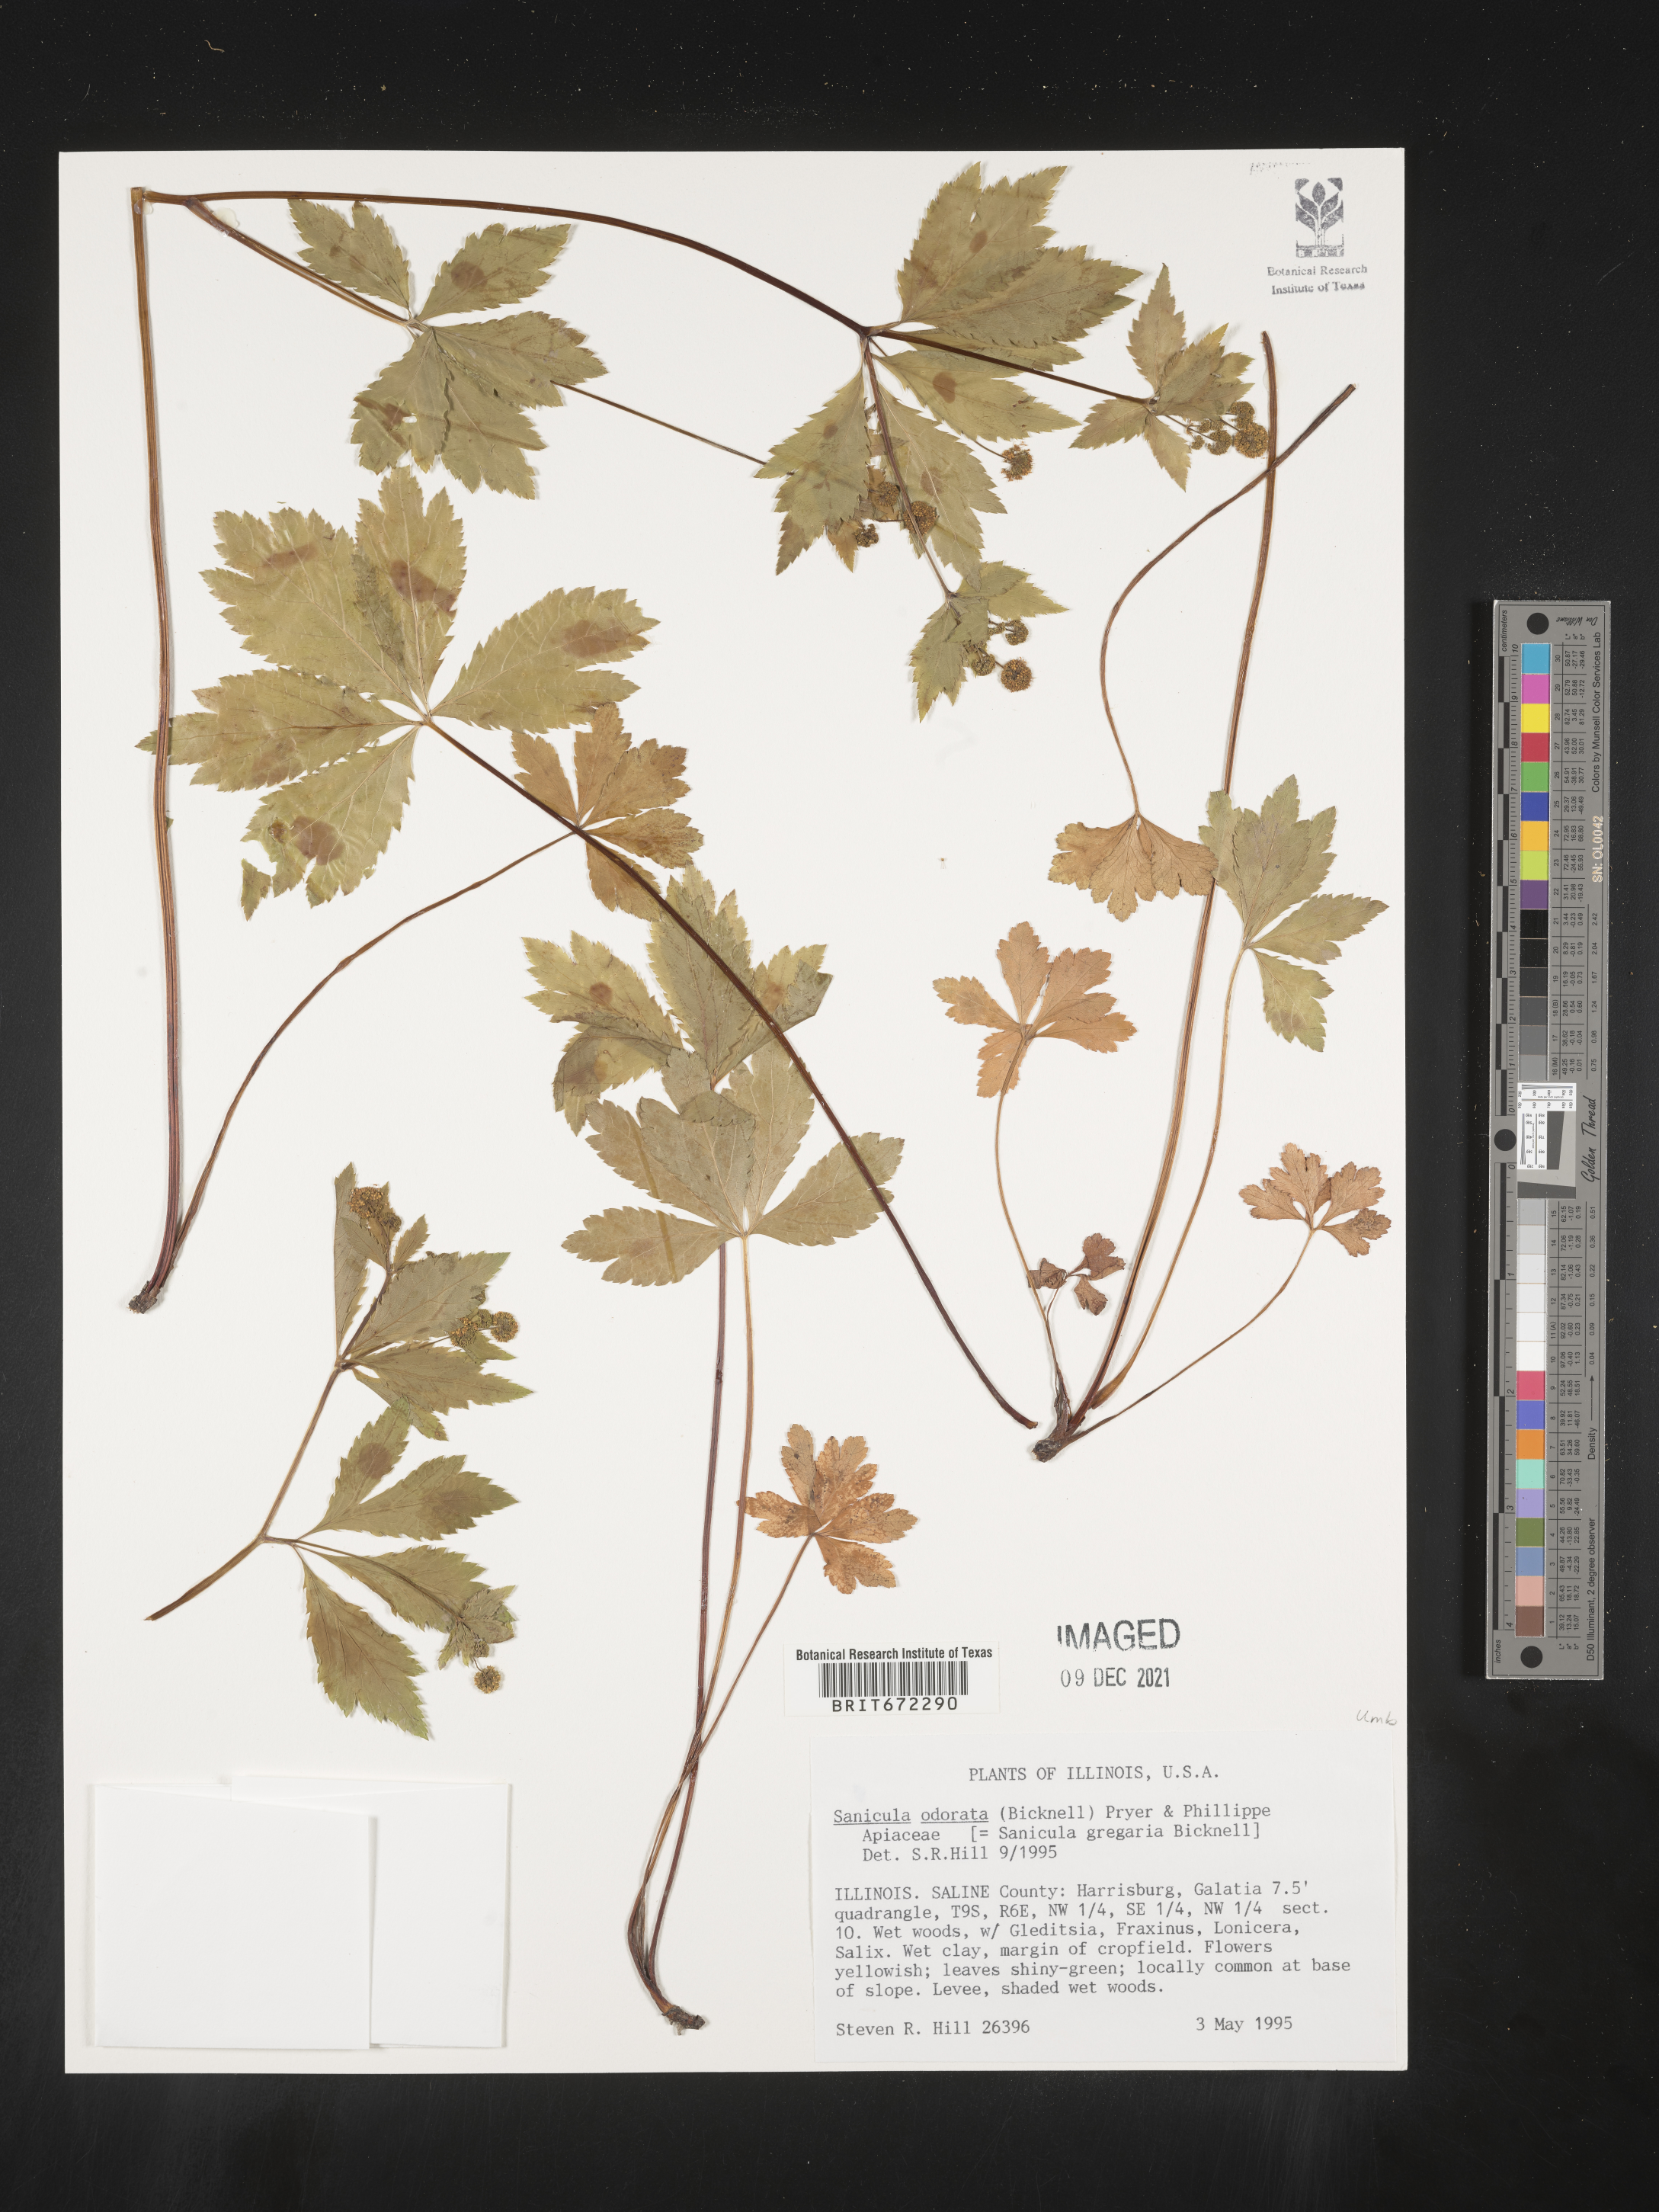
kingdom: Plantae
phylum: Tracheophyta
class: Magnoliopsida
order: Apiales
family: Apiaceae
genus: Sanicula
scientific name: Sanicula
